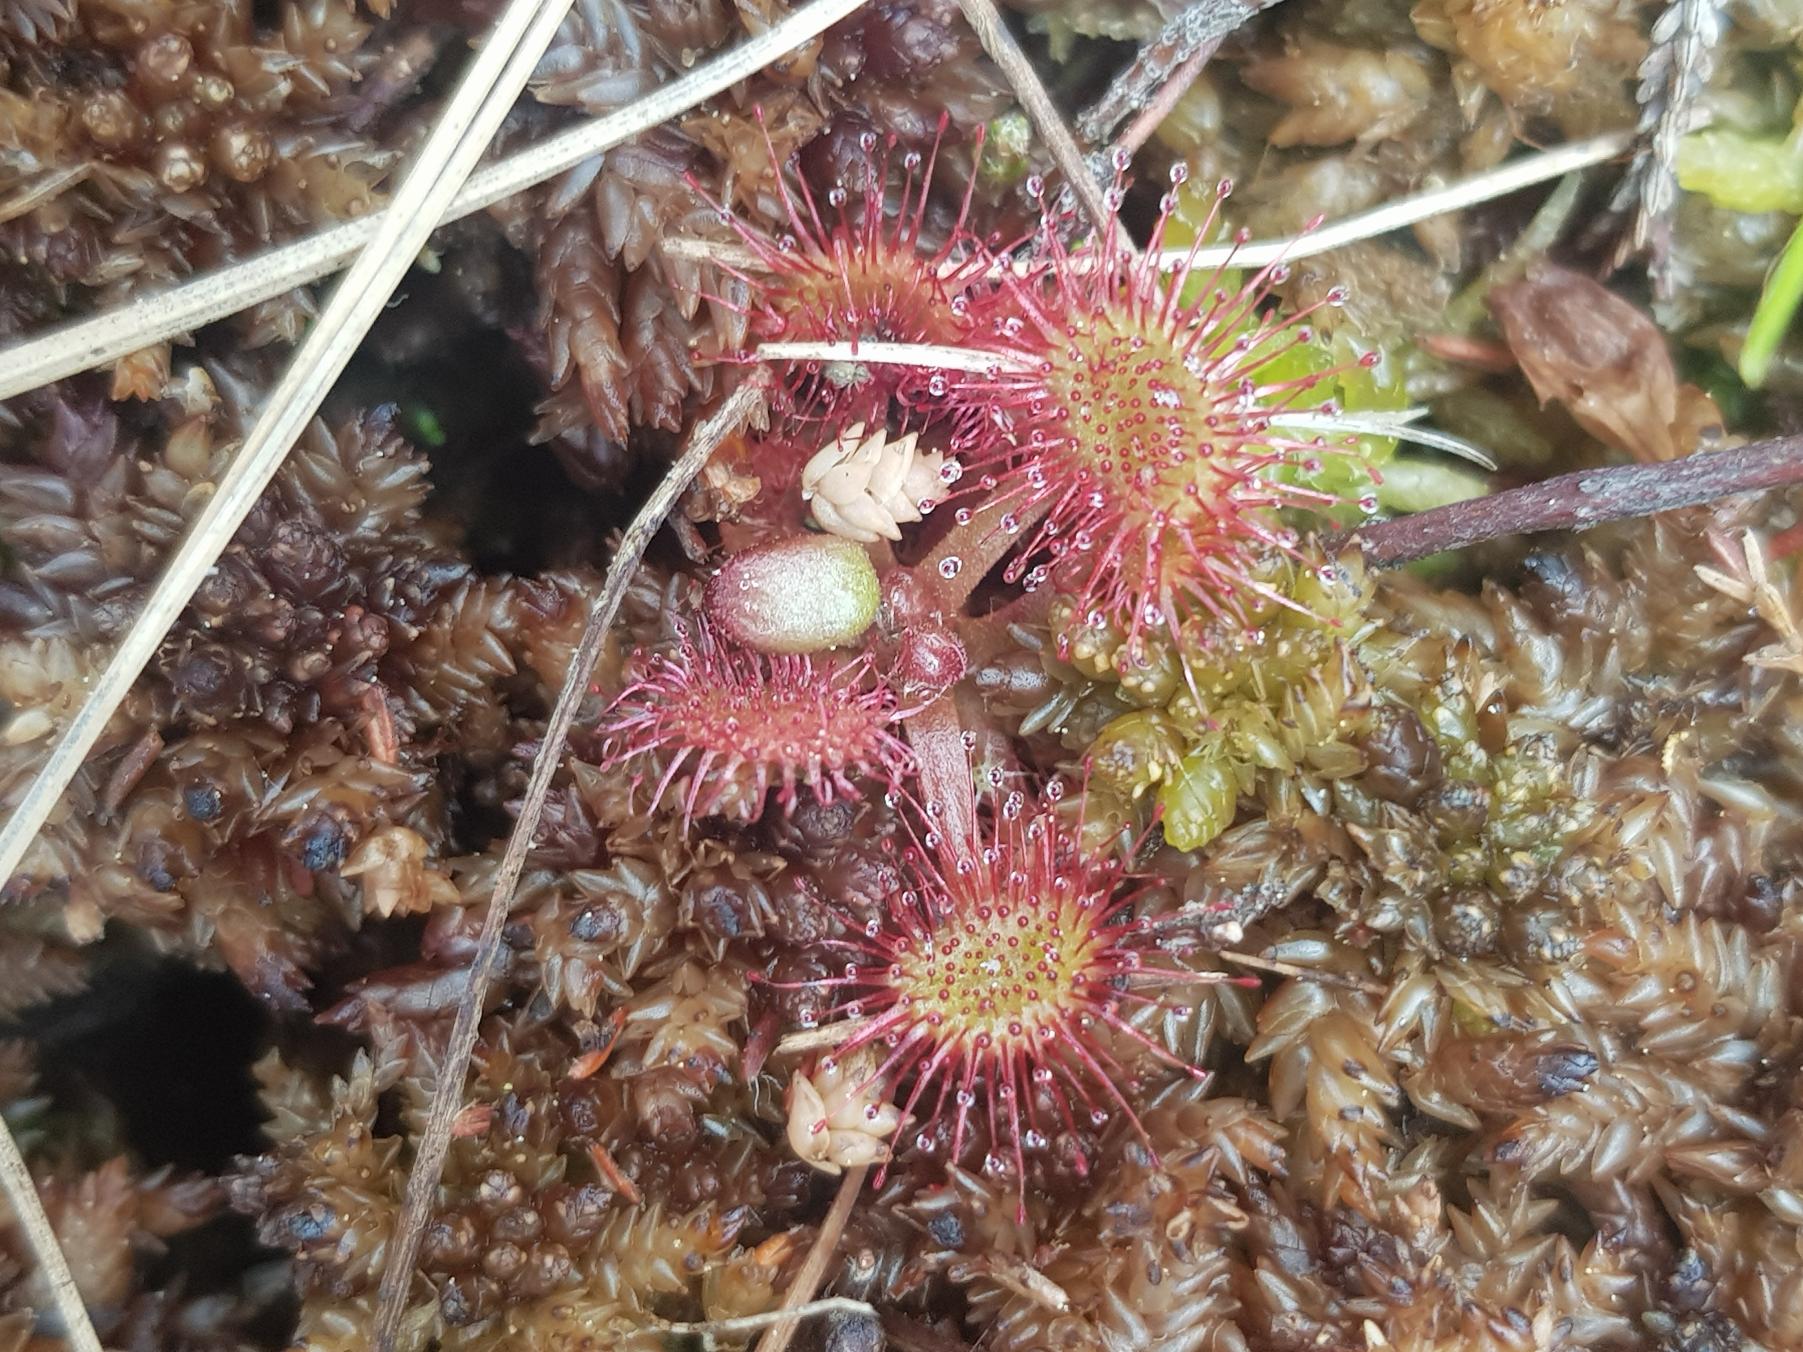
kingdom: Plantae
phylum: Tracheophyta
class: Magnoliopsida
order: Caryophyllales
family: Droseraceae
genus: Drosera
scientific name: Drosera rotundifolia
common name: Rundbladet soldug
